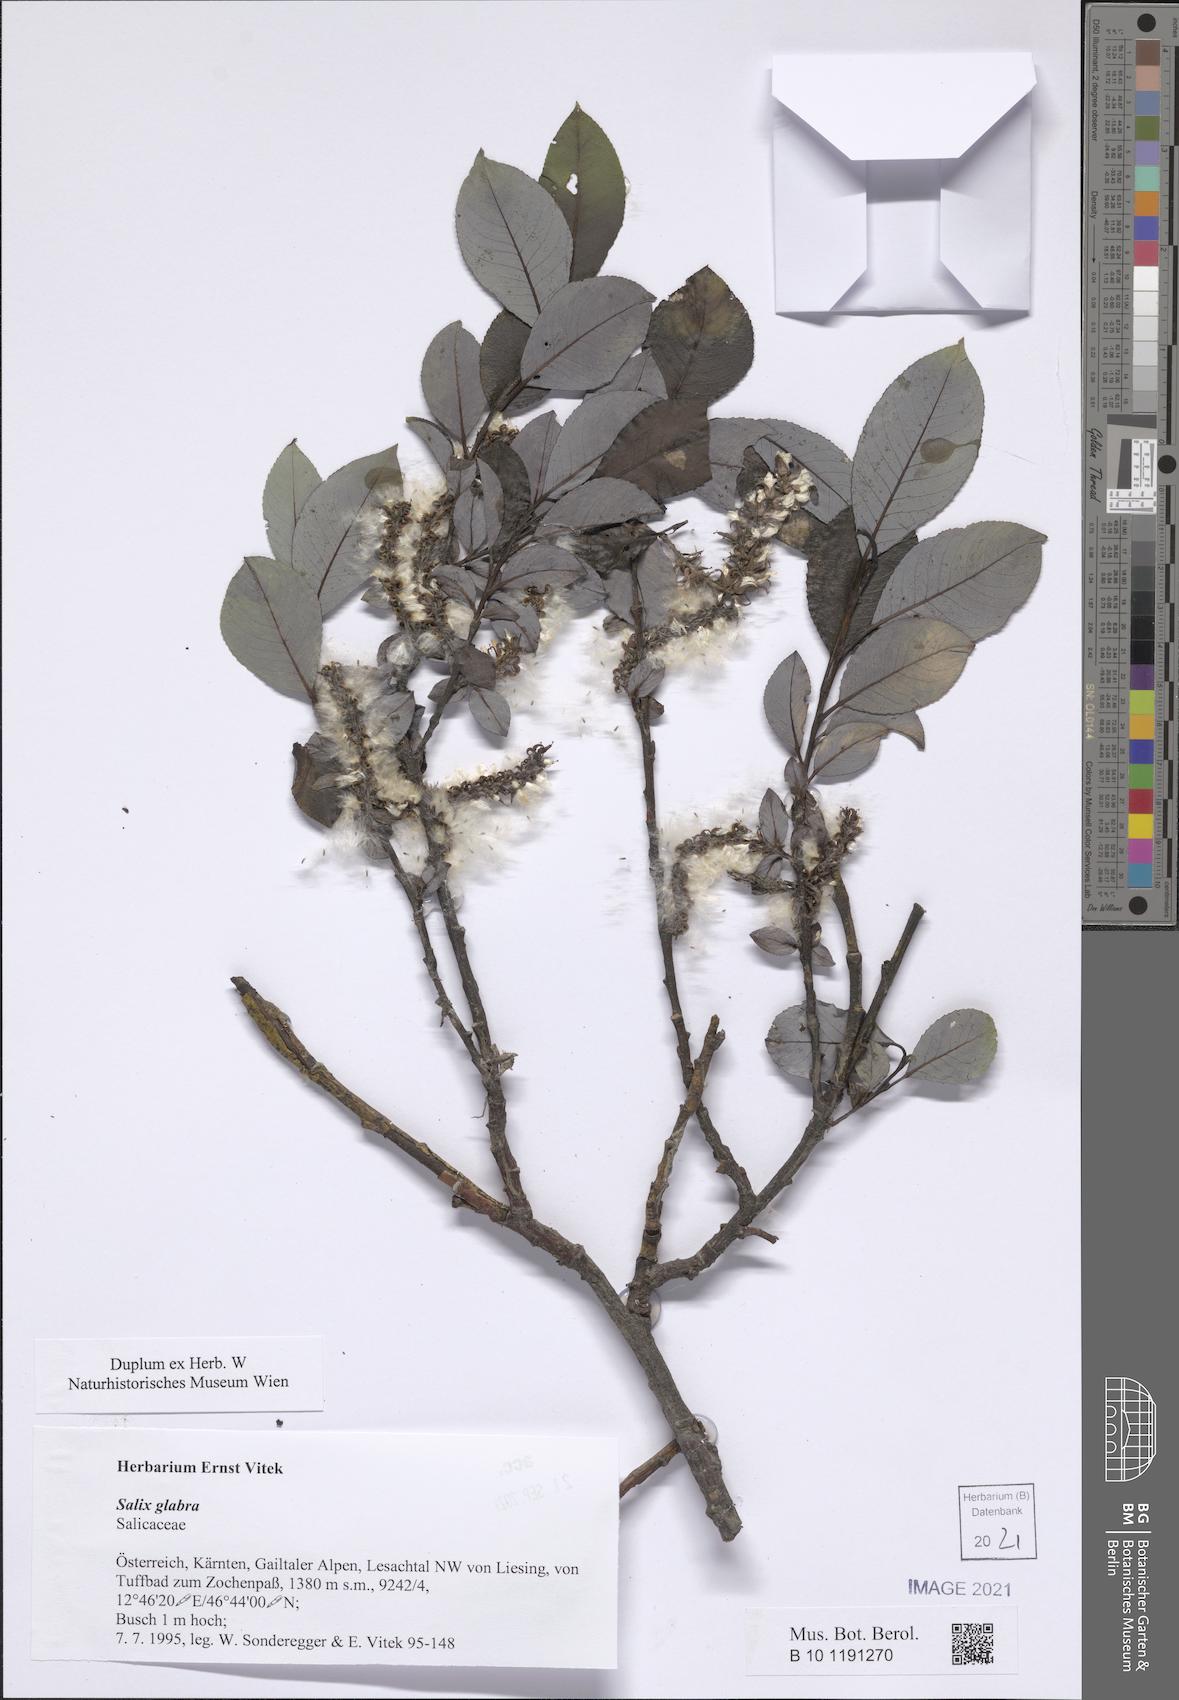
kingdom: Plantae
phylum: Tracheophyta
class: Magnoliopsida
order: Malpighiales
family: Salicaceae
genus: Salix
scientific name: Salix glabra
